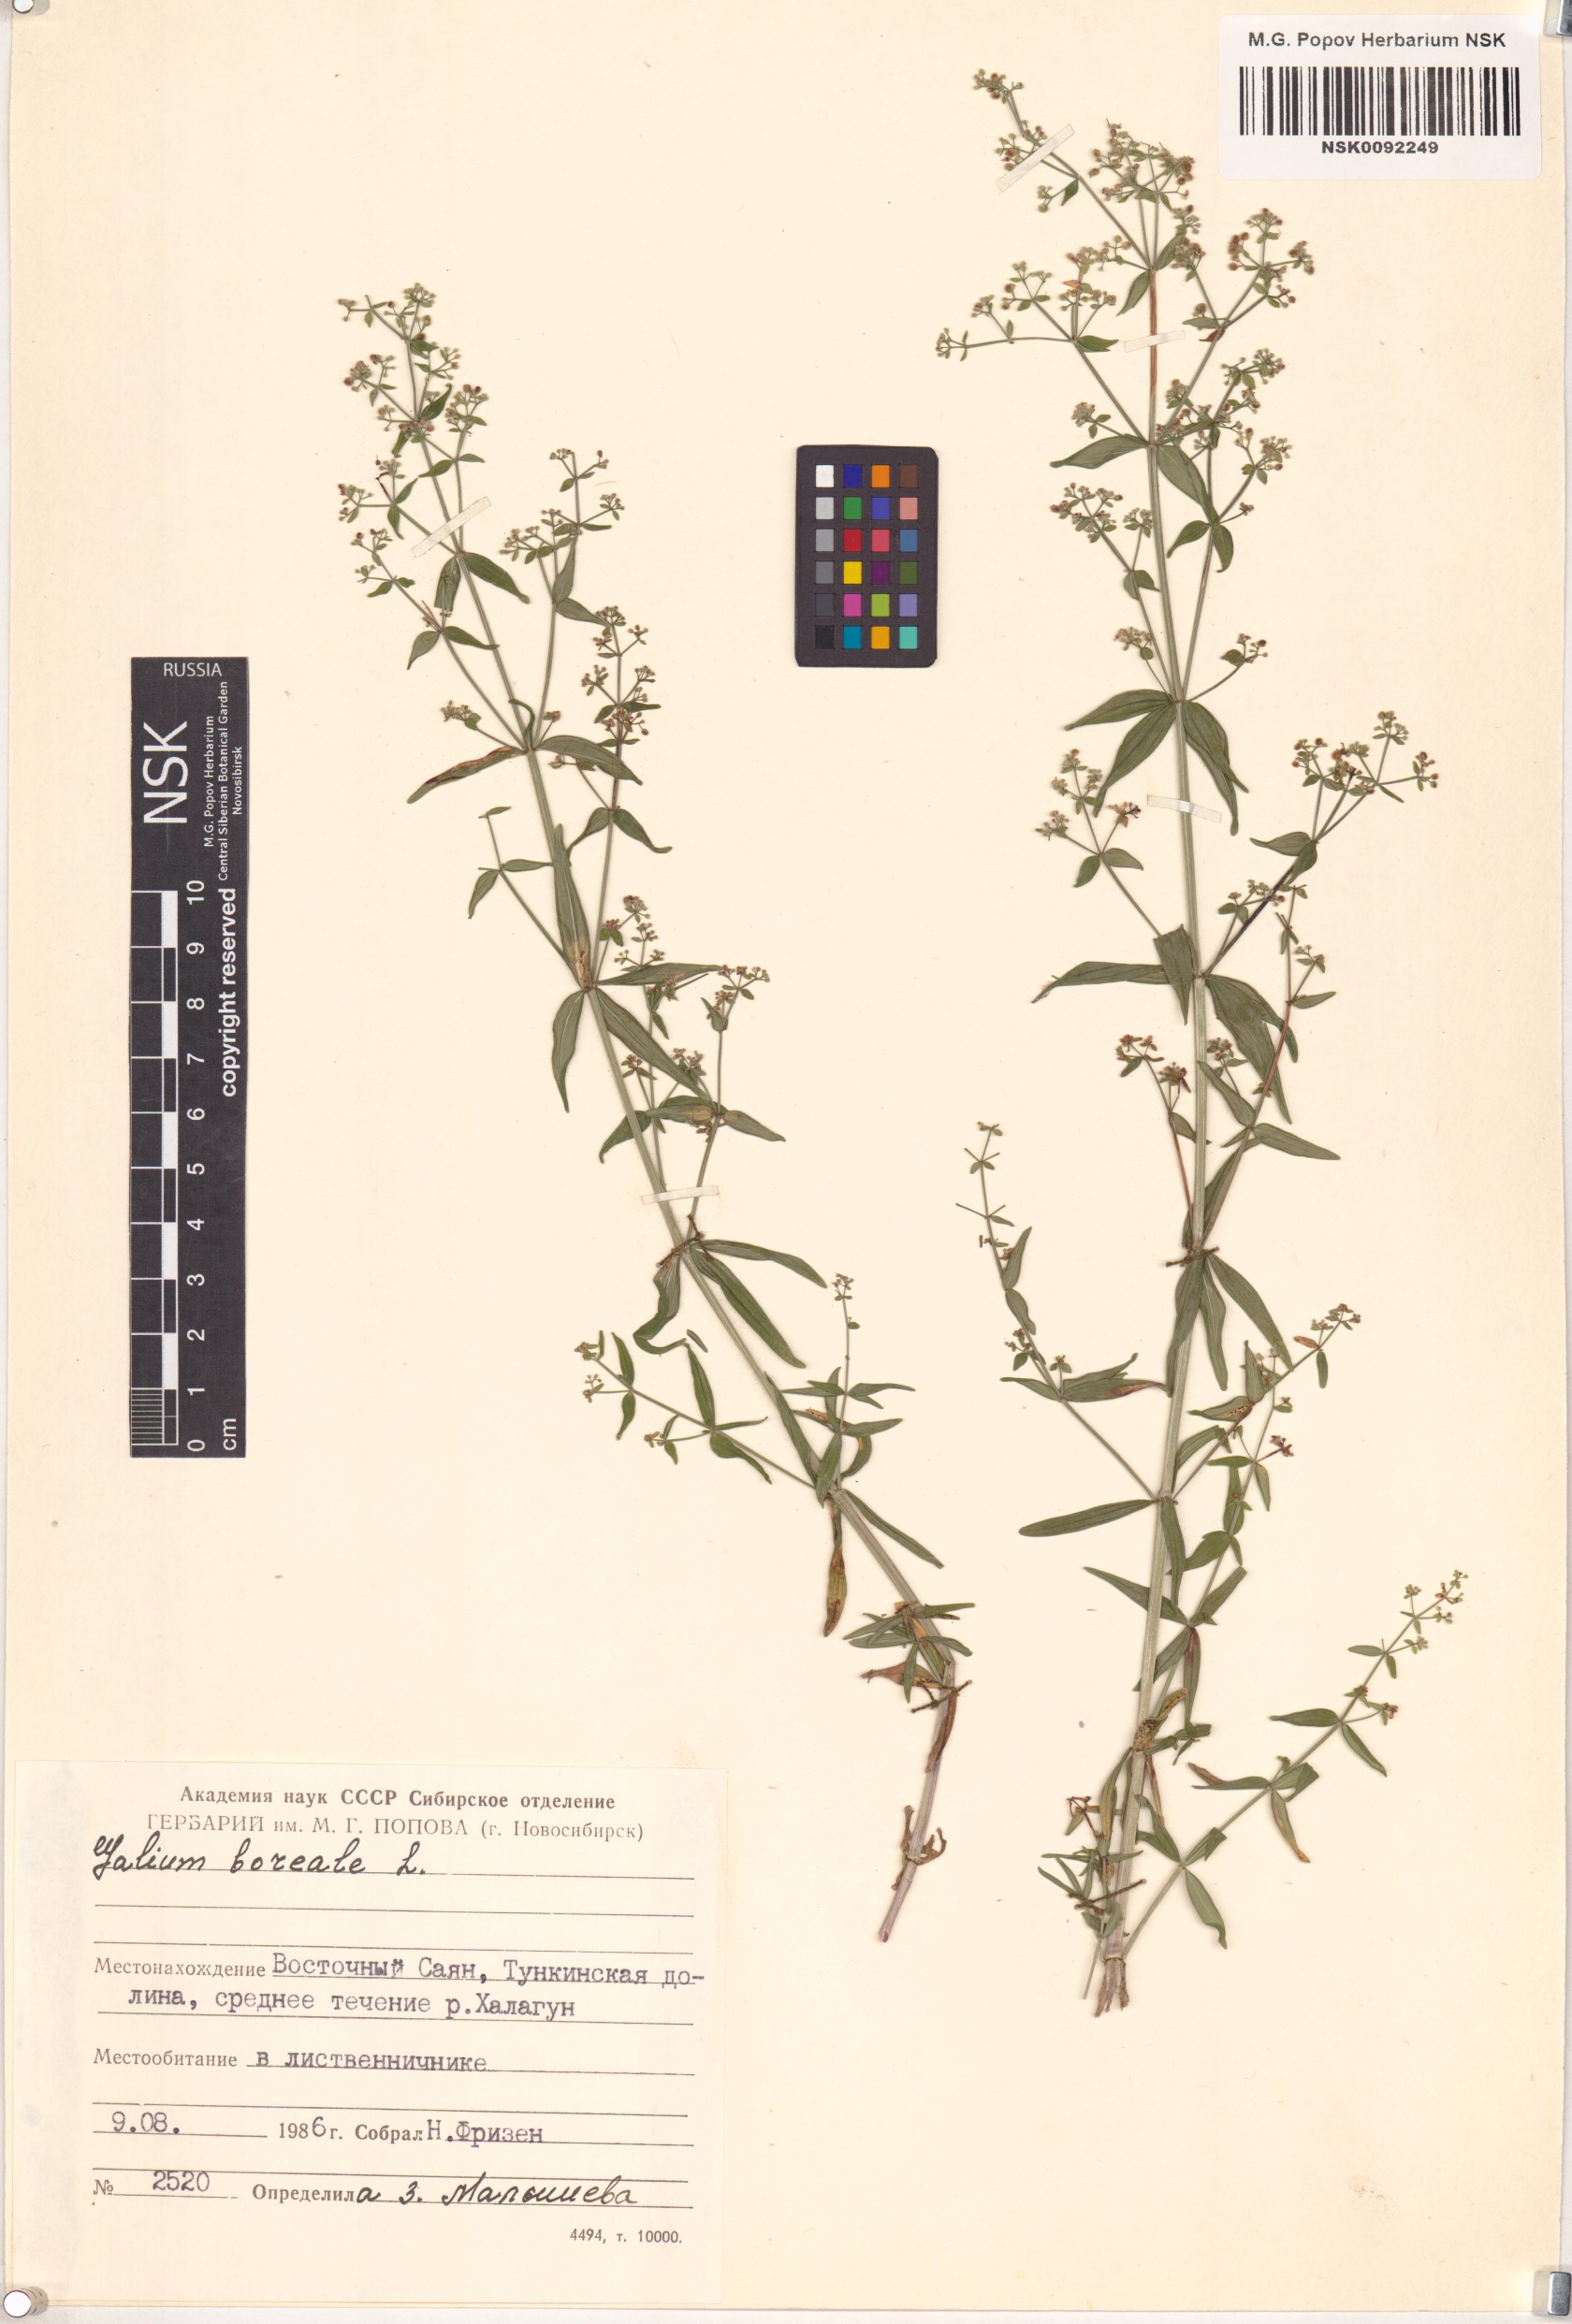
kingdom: Plantae
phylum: Tracheophyta
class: Magnoliopsida
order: Gentianales
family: Rubiaceae
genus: Galium
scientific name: Galium boreale
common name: Northern bedstraw
